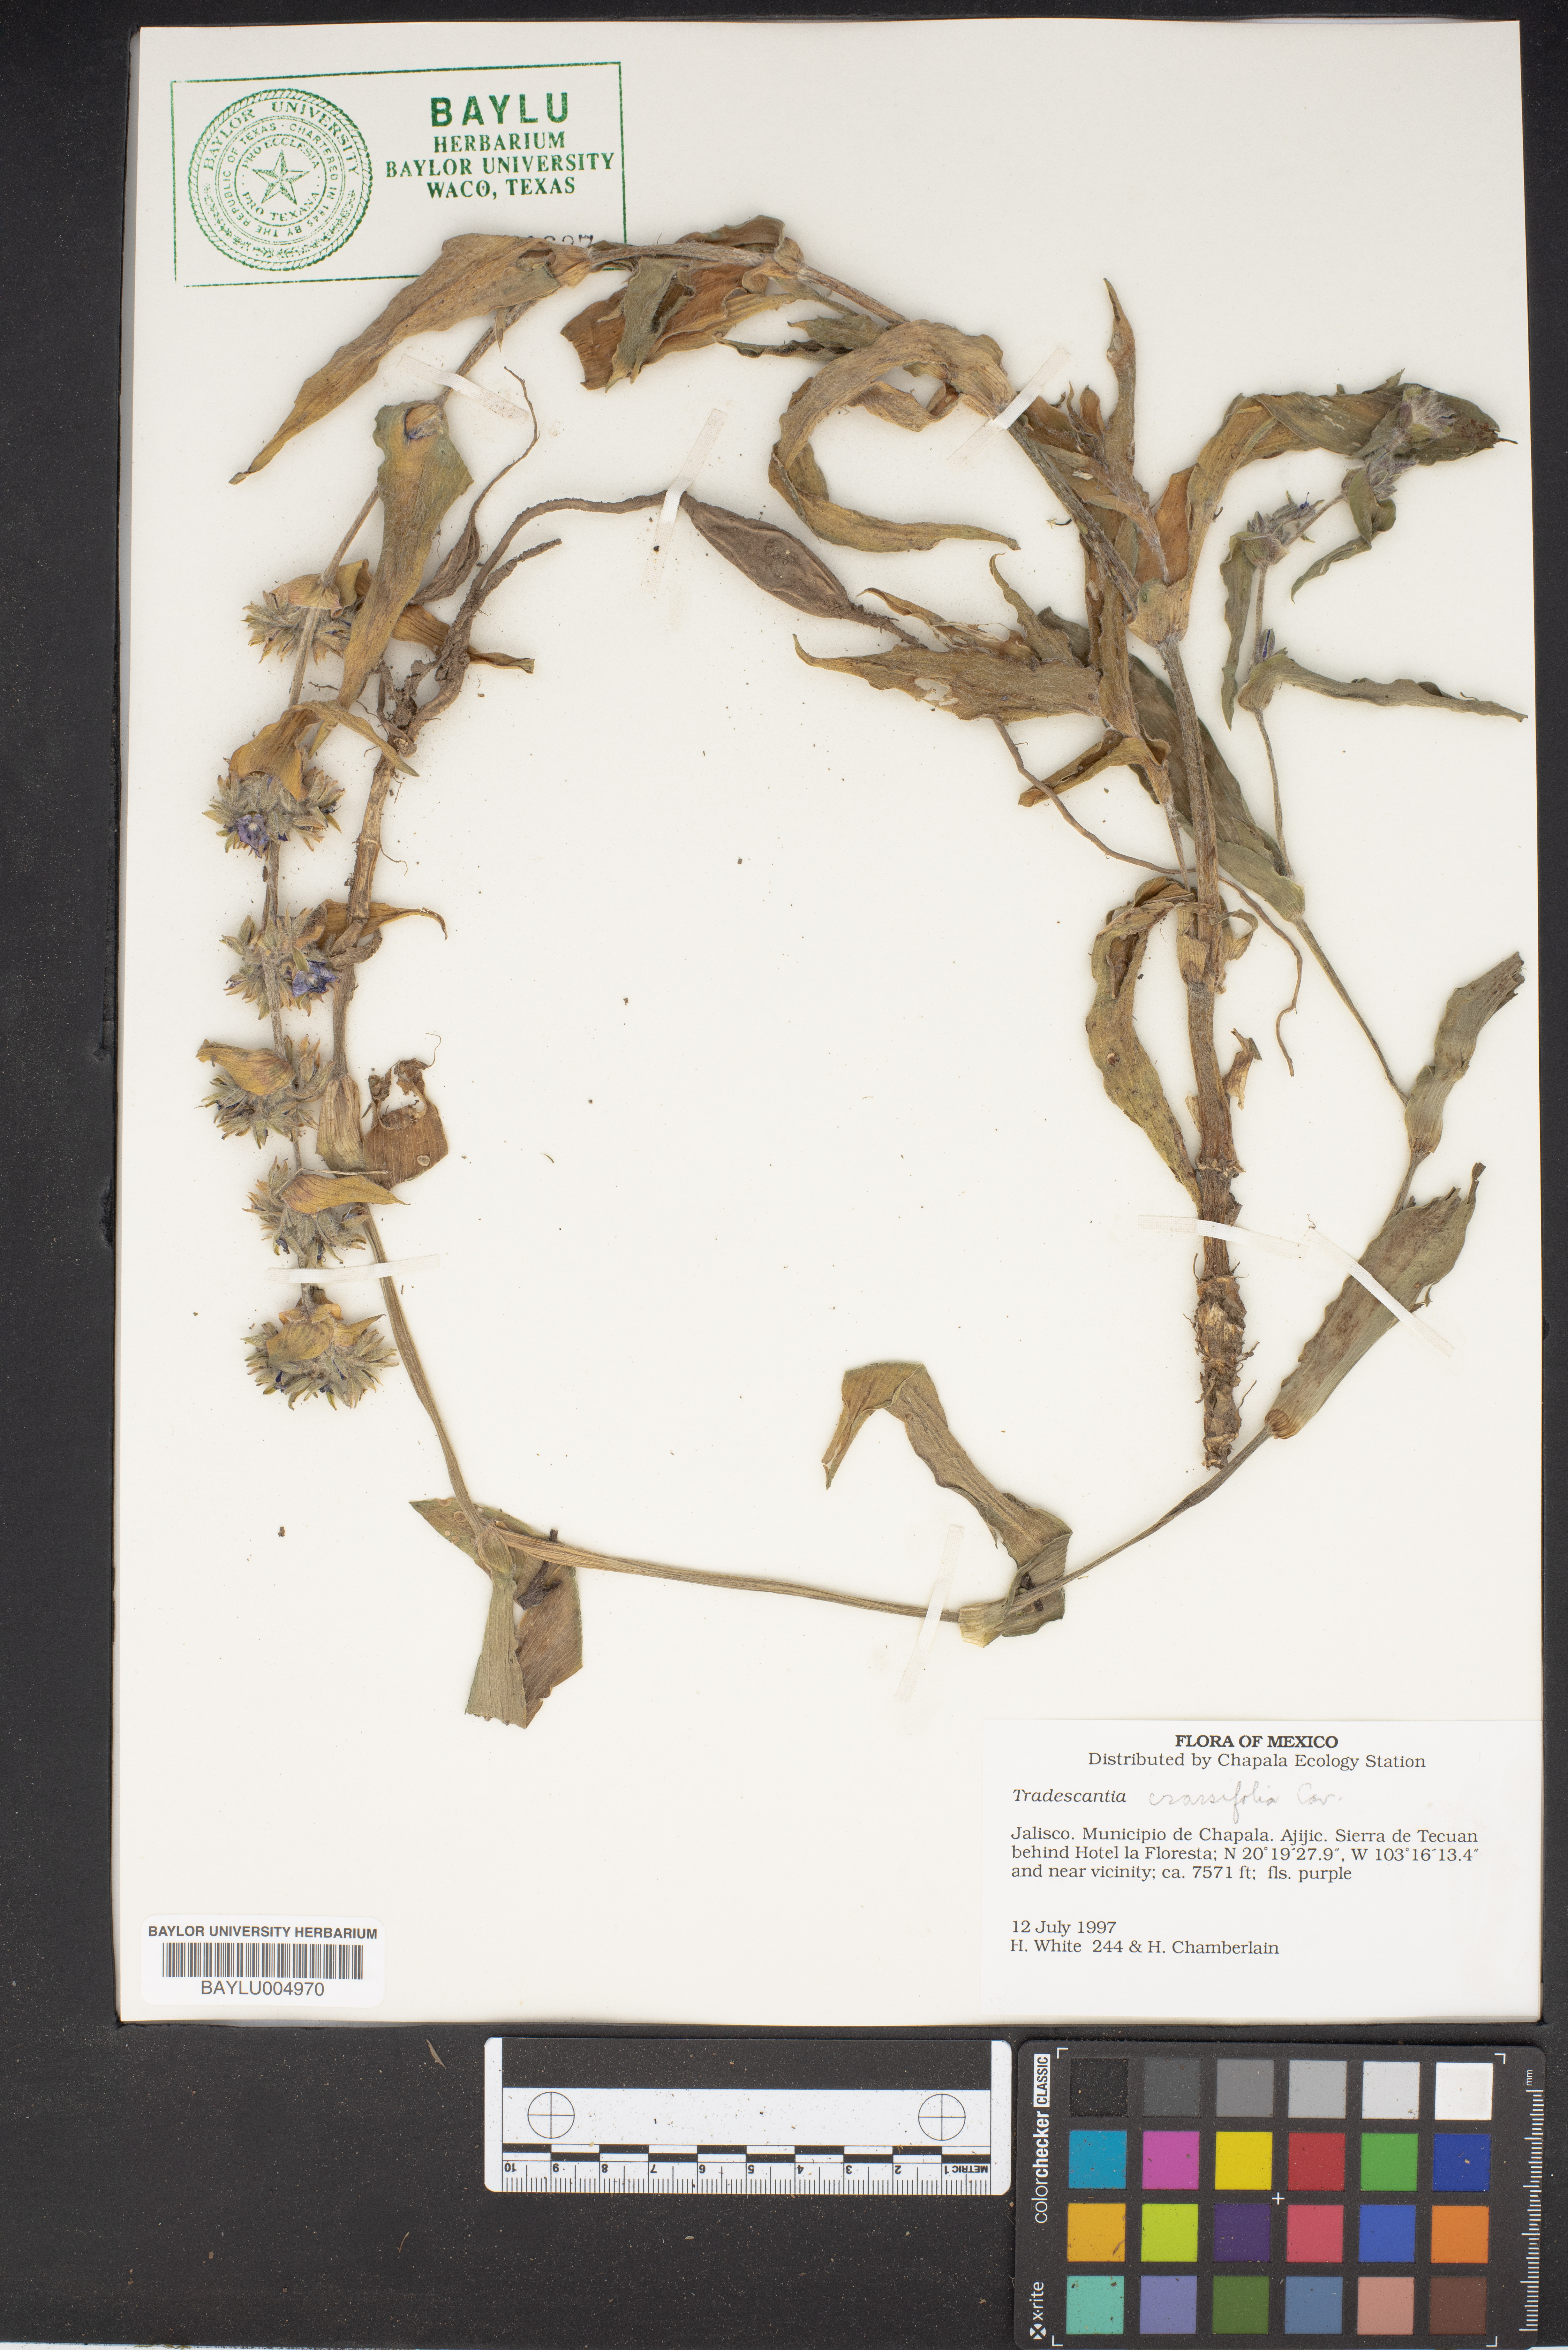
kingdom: Plantae
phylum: Tracheophyta
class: Liliopsida
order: Commelinales
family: Commelinaceae
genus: Tradescantia
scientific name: Tradescantia crassifolia
